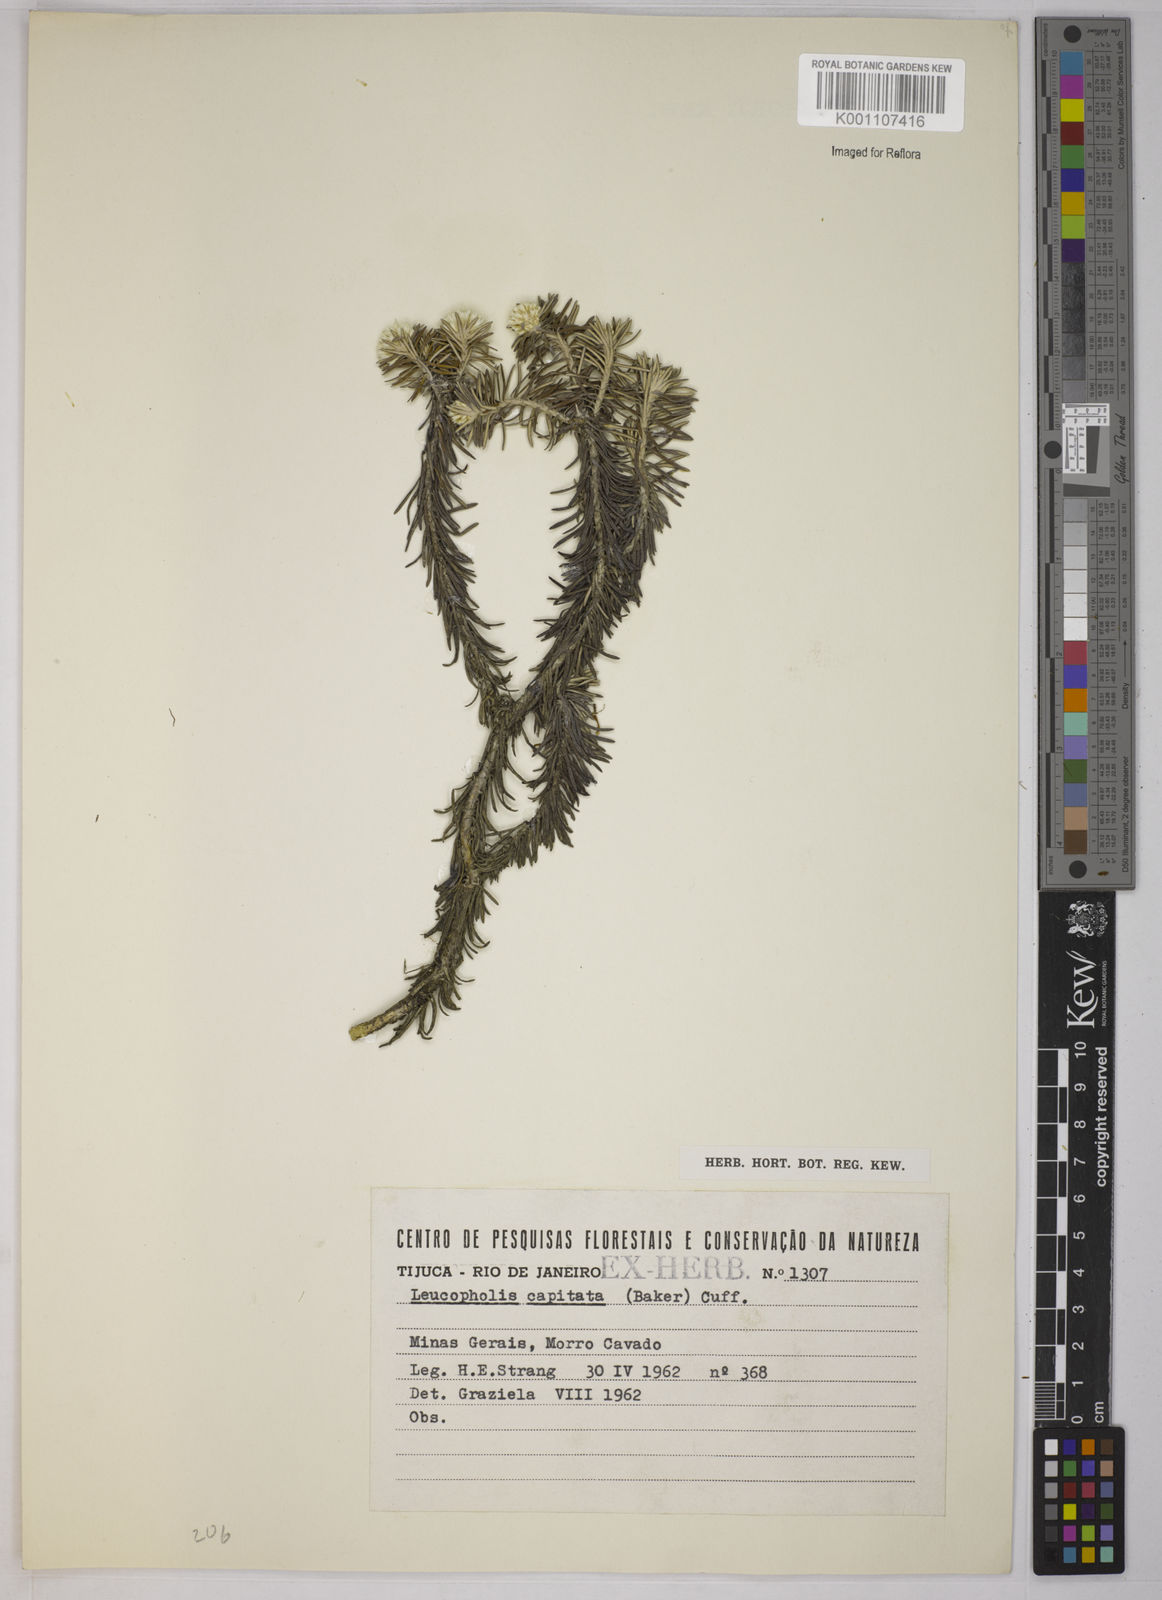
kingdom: Plantae
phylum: Tracheophyta
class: Magnoliopsida
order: Asterales
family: Asteraceae
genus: Chionolaena
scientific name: Chionolaena capitata
